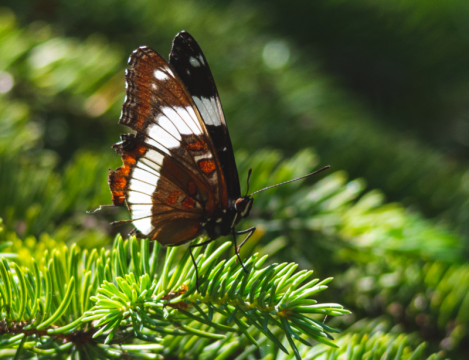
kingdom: Animalia
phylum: Arthropoda
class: Insecta
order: Lepidoptera
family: Nymphalidae
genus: Limenitis
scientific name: Limenitis arthemis
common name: Red-spotted Admiral
